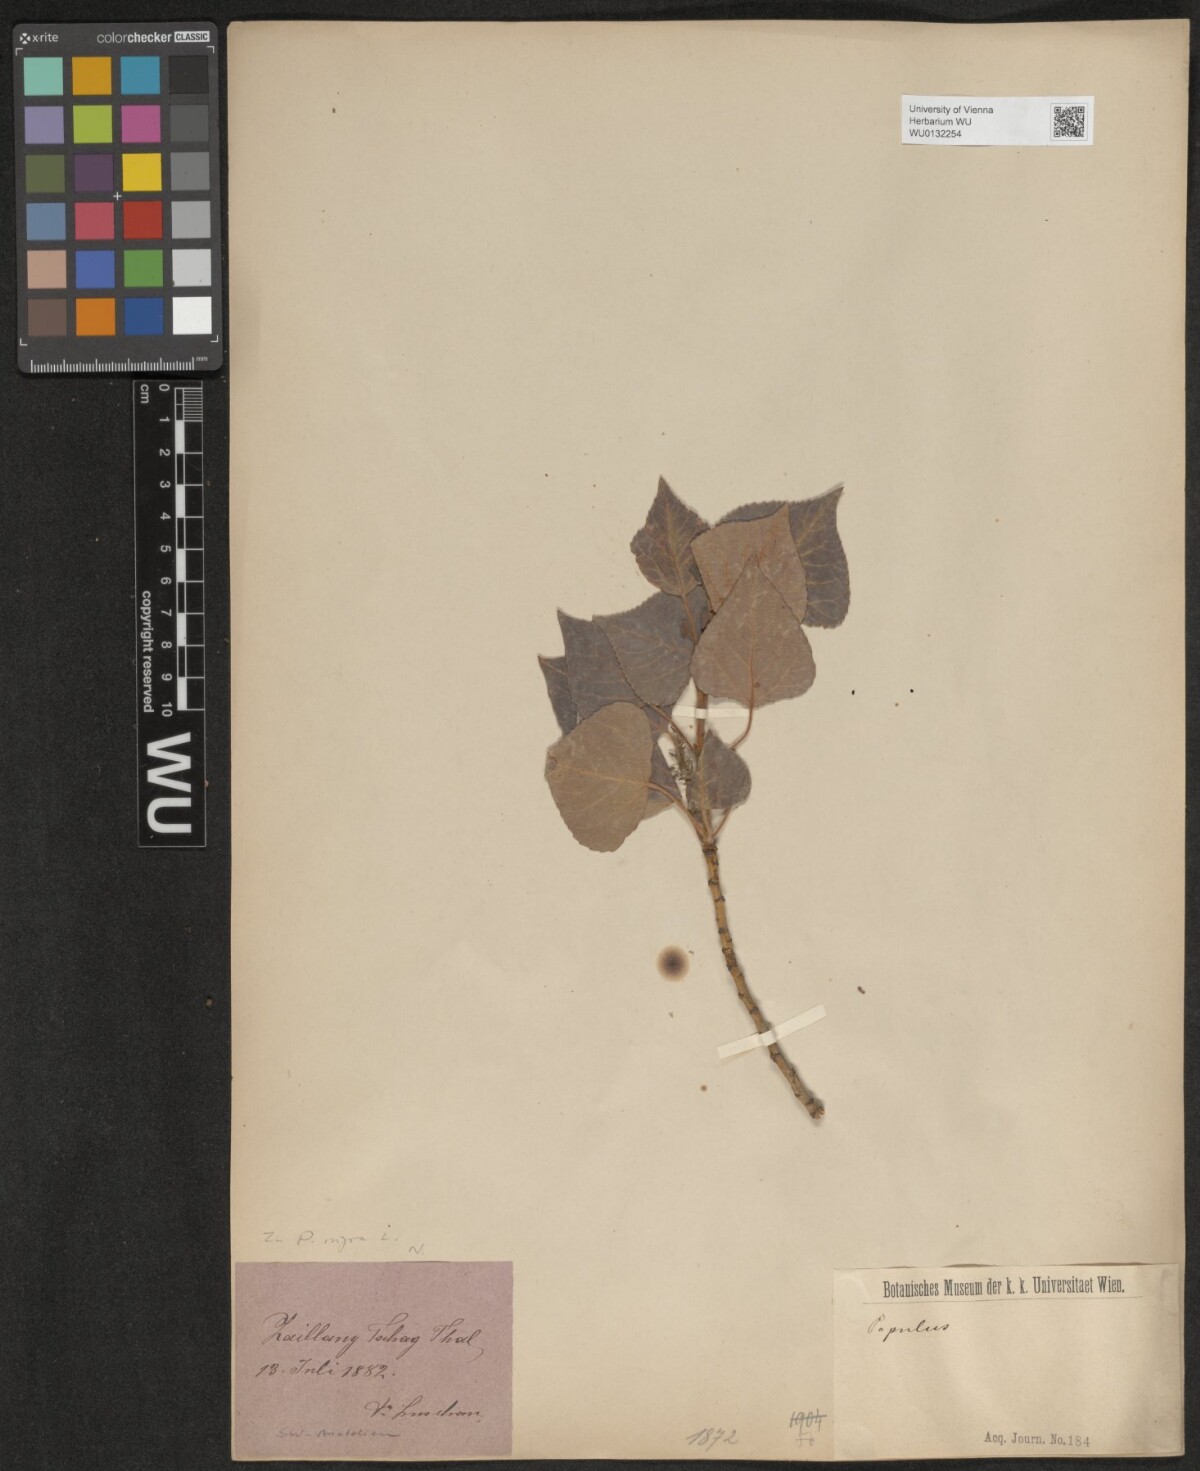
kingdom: Plantae
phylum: Tracheophyta
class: Magnoliopsida
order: Malpighiales
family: Salicaceae
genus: Populus
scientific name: Populus nigra
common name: Black poplar
